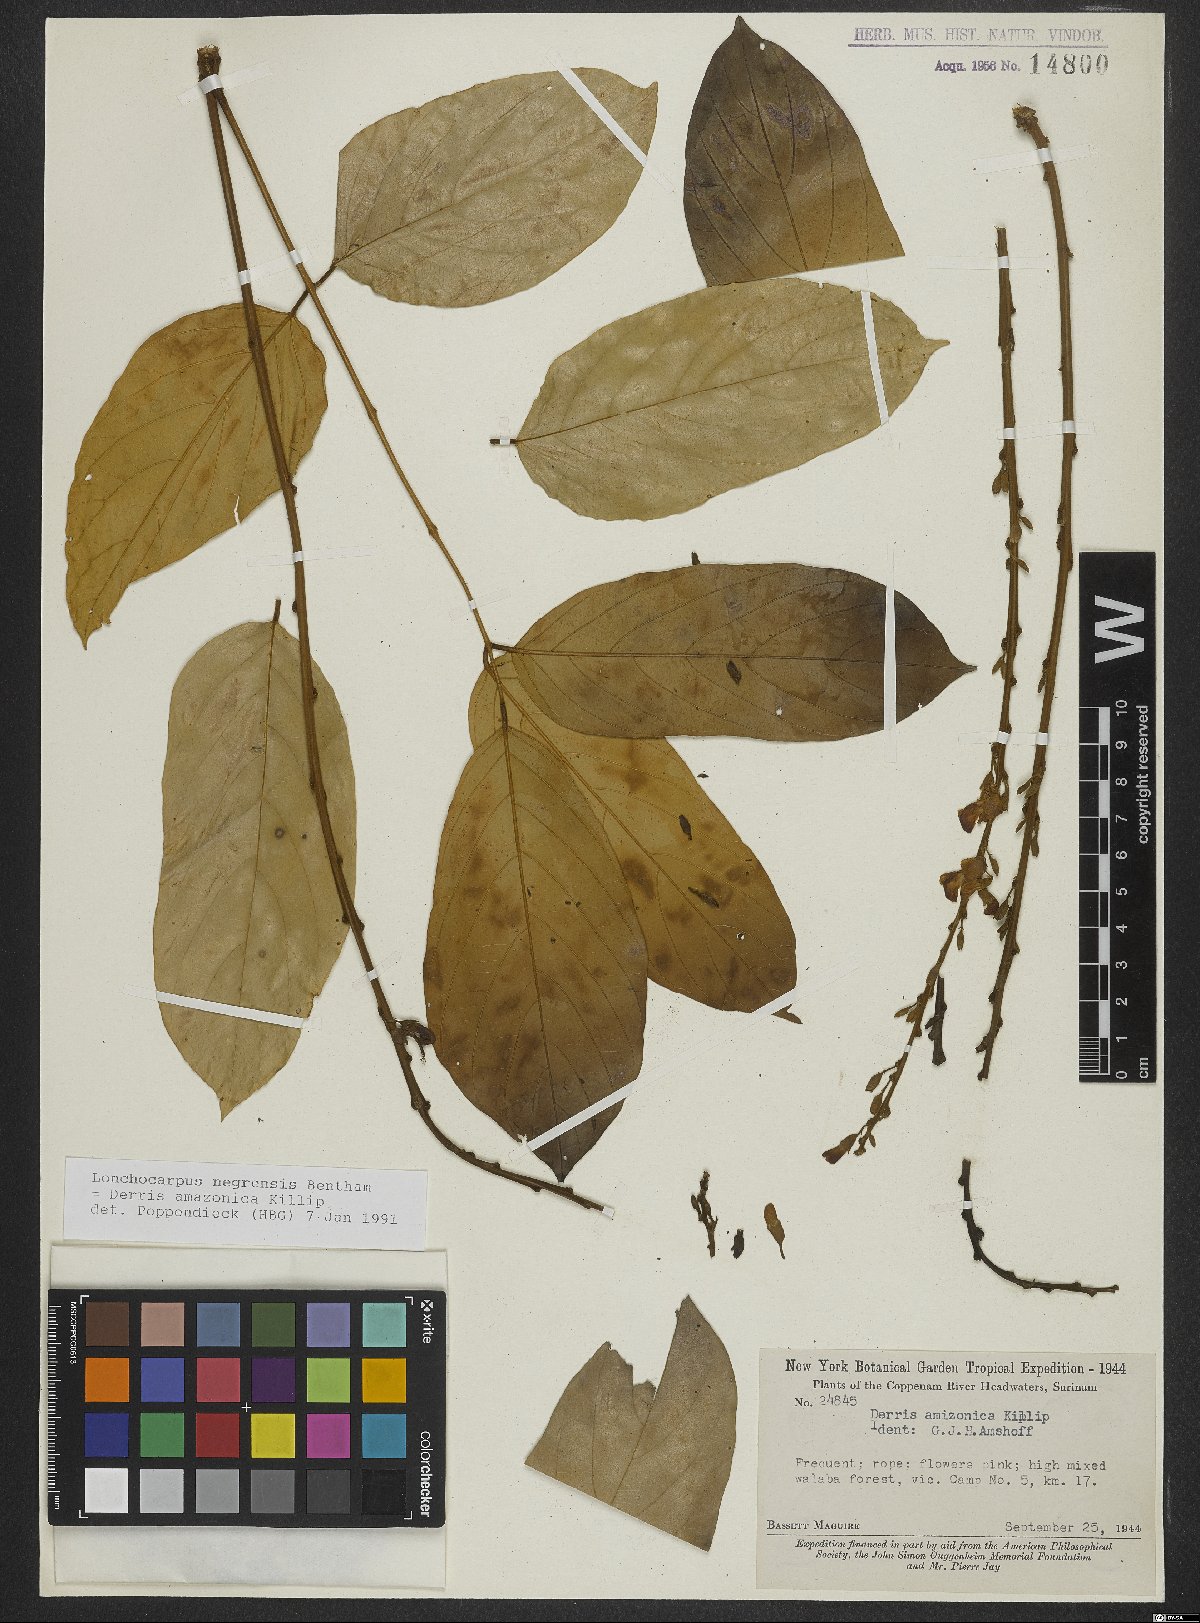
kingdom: Plantae
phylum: Tracheophyta
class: Magnoliopsida
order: Fabales
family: Fabaceae
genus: Deguelia
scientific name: Deguelia amazonica
